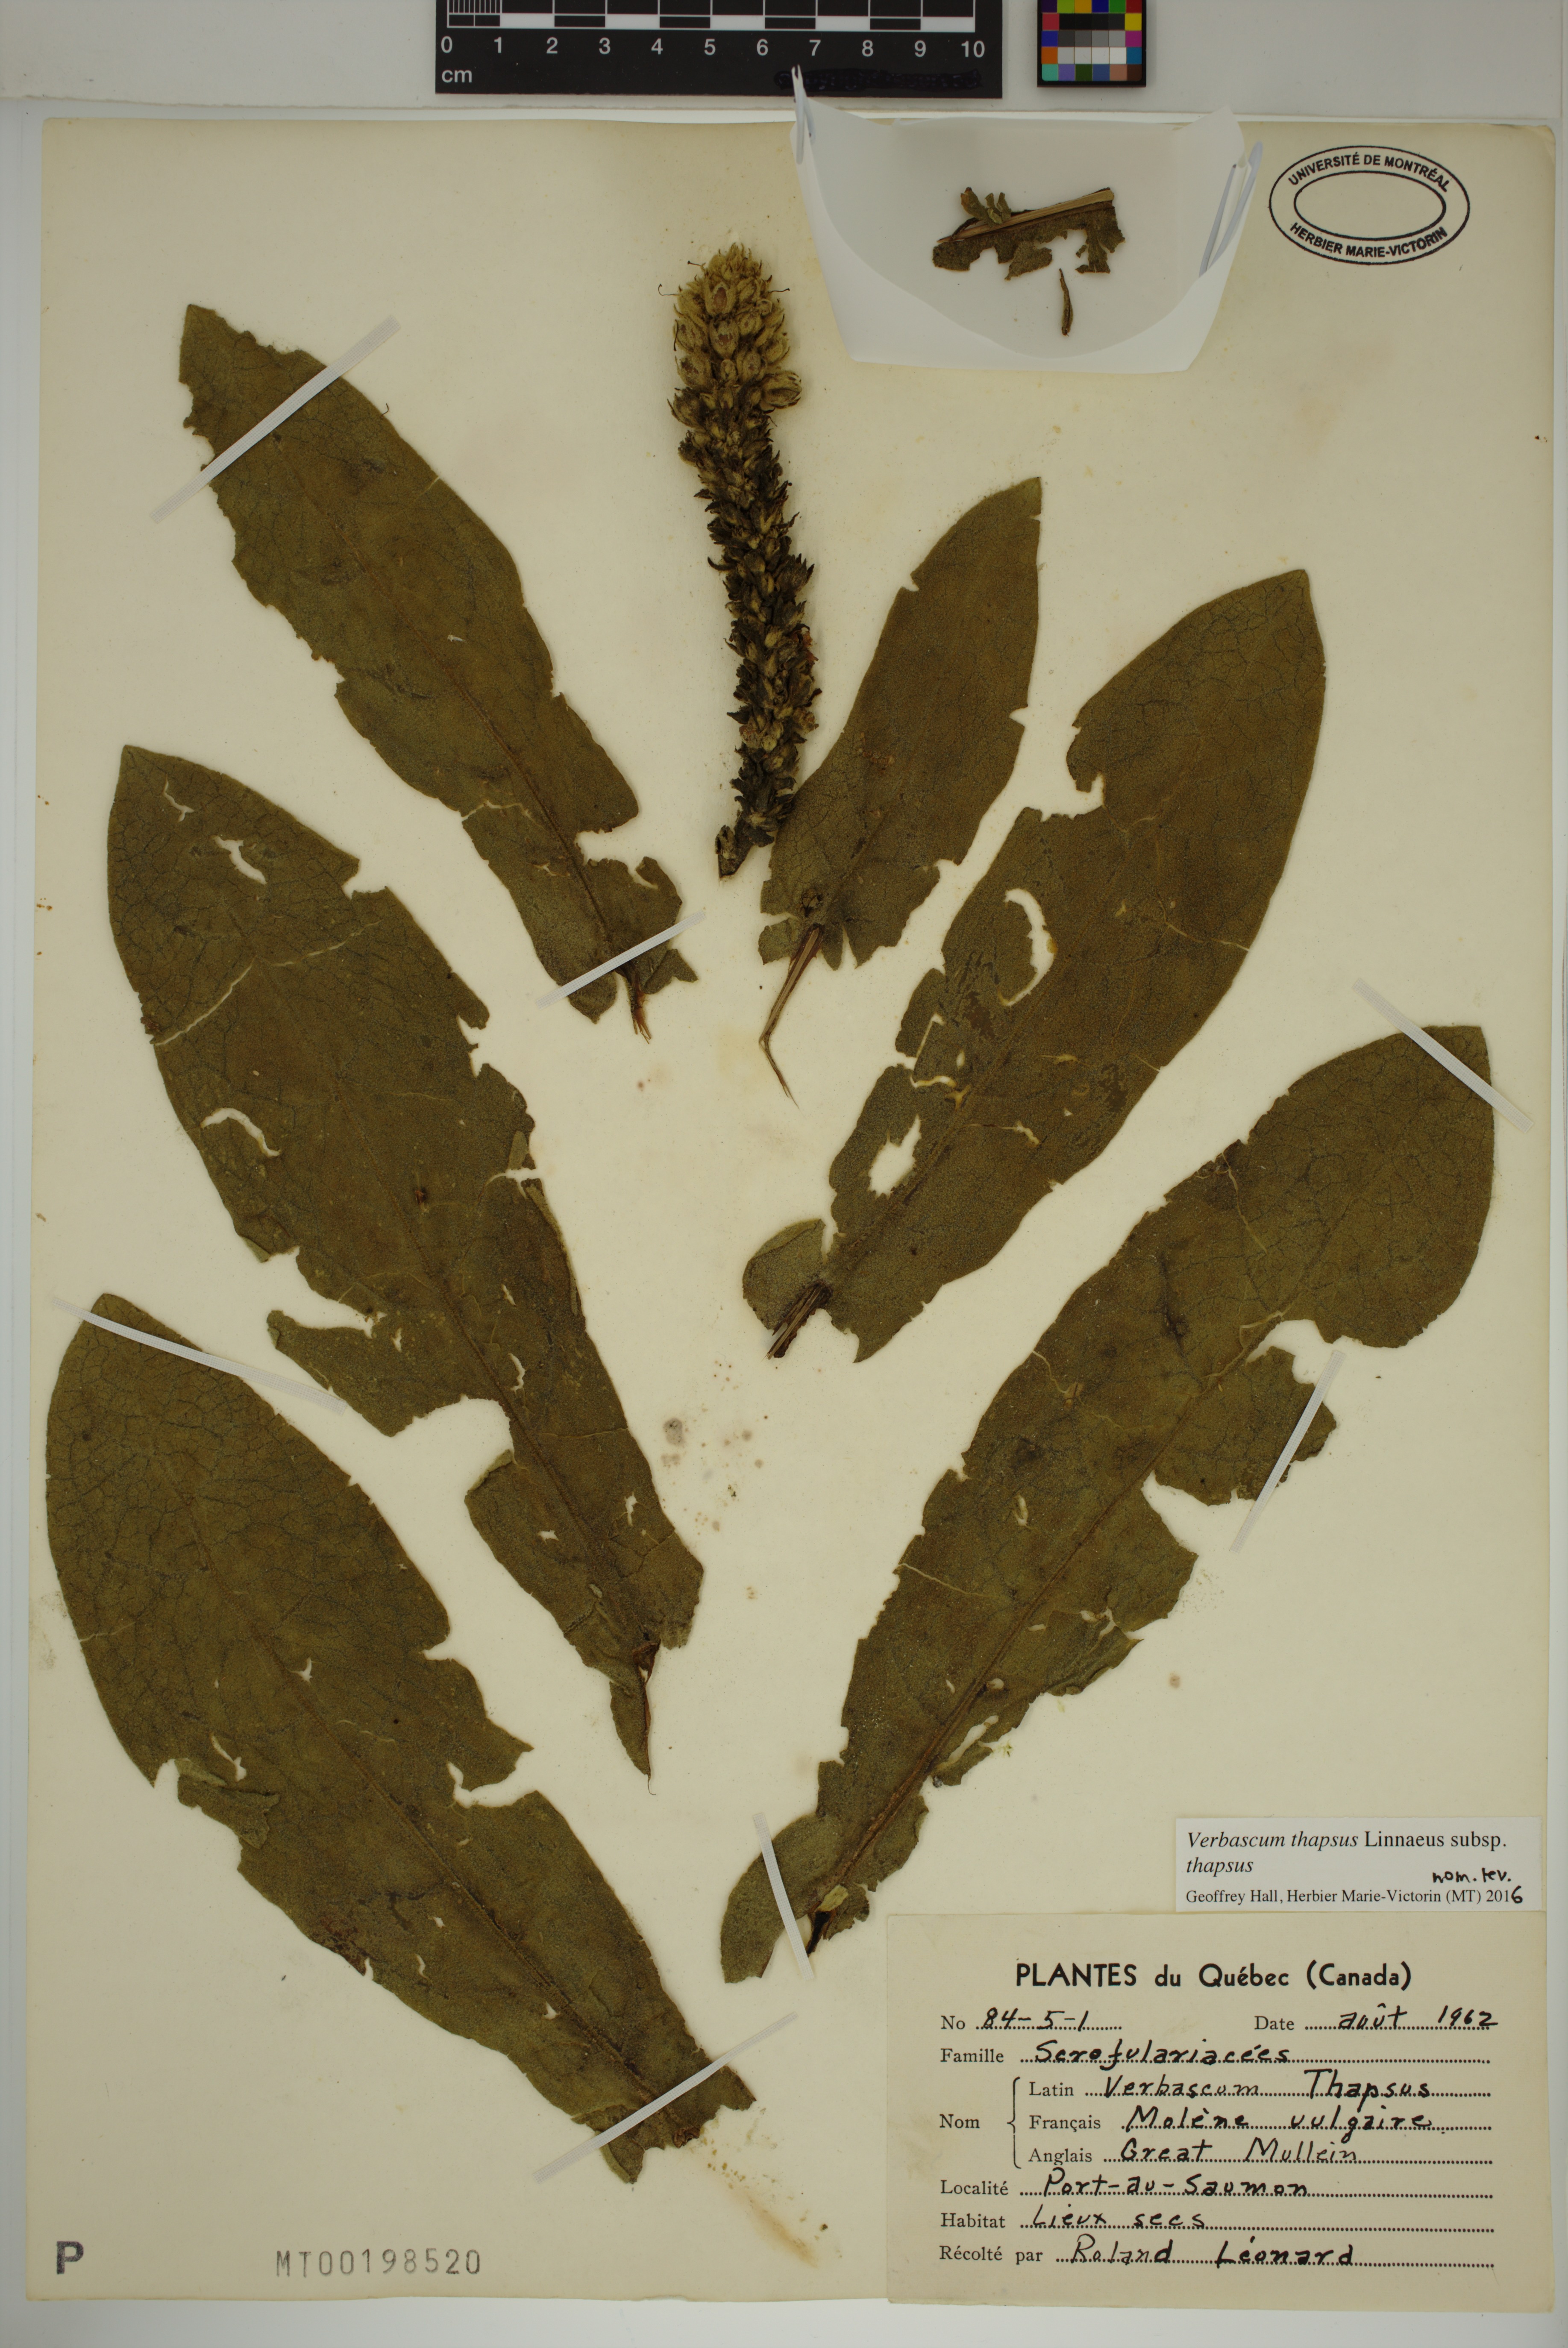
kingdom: Plantae
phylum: Tracheophyta
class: Magnoliopsida
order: Lamiales
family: Scrophulariaceae
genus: Verbascum
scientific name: Verbascum thapsus
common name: Common mullein
